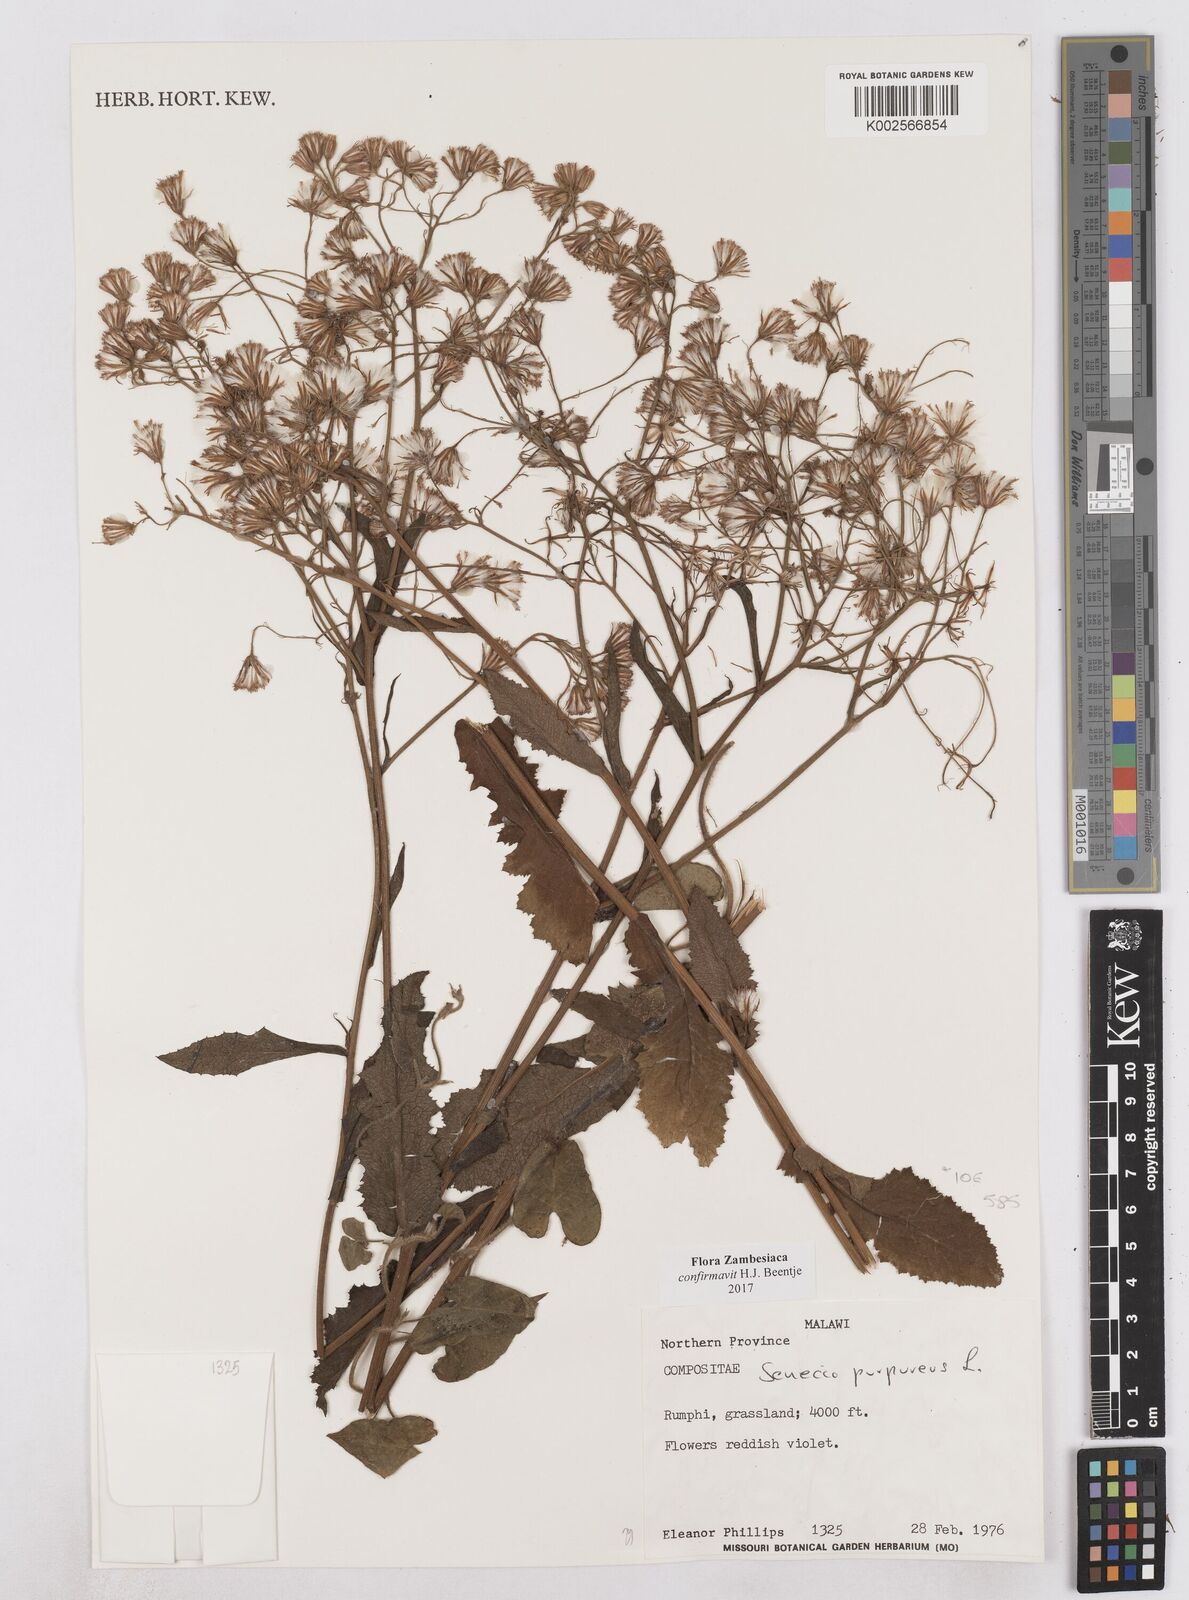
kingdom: Plantae
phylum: Tracheophyta
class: Magnoliopsida
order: Asterales
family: Asteraceae
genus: Senecio
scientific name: Senecio purpureus
